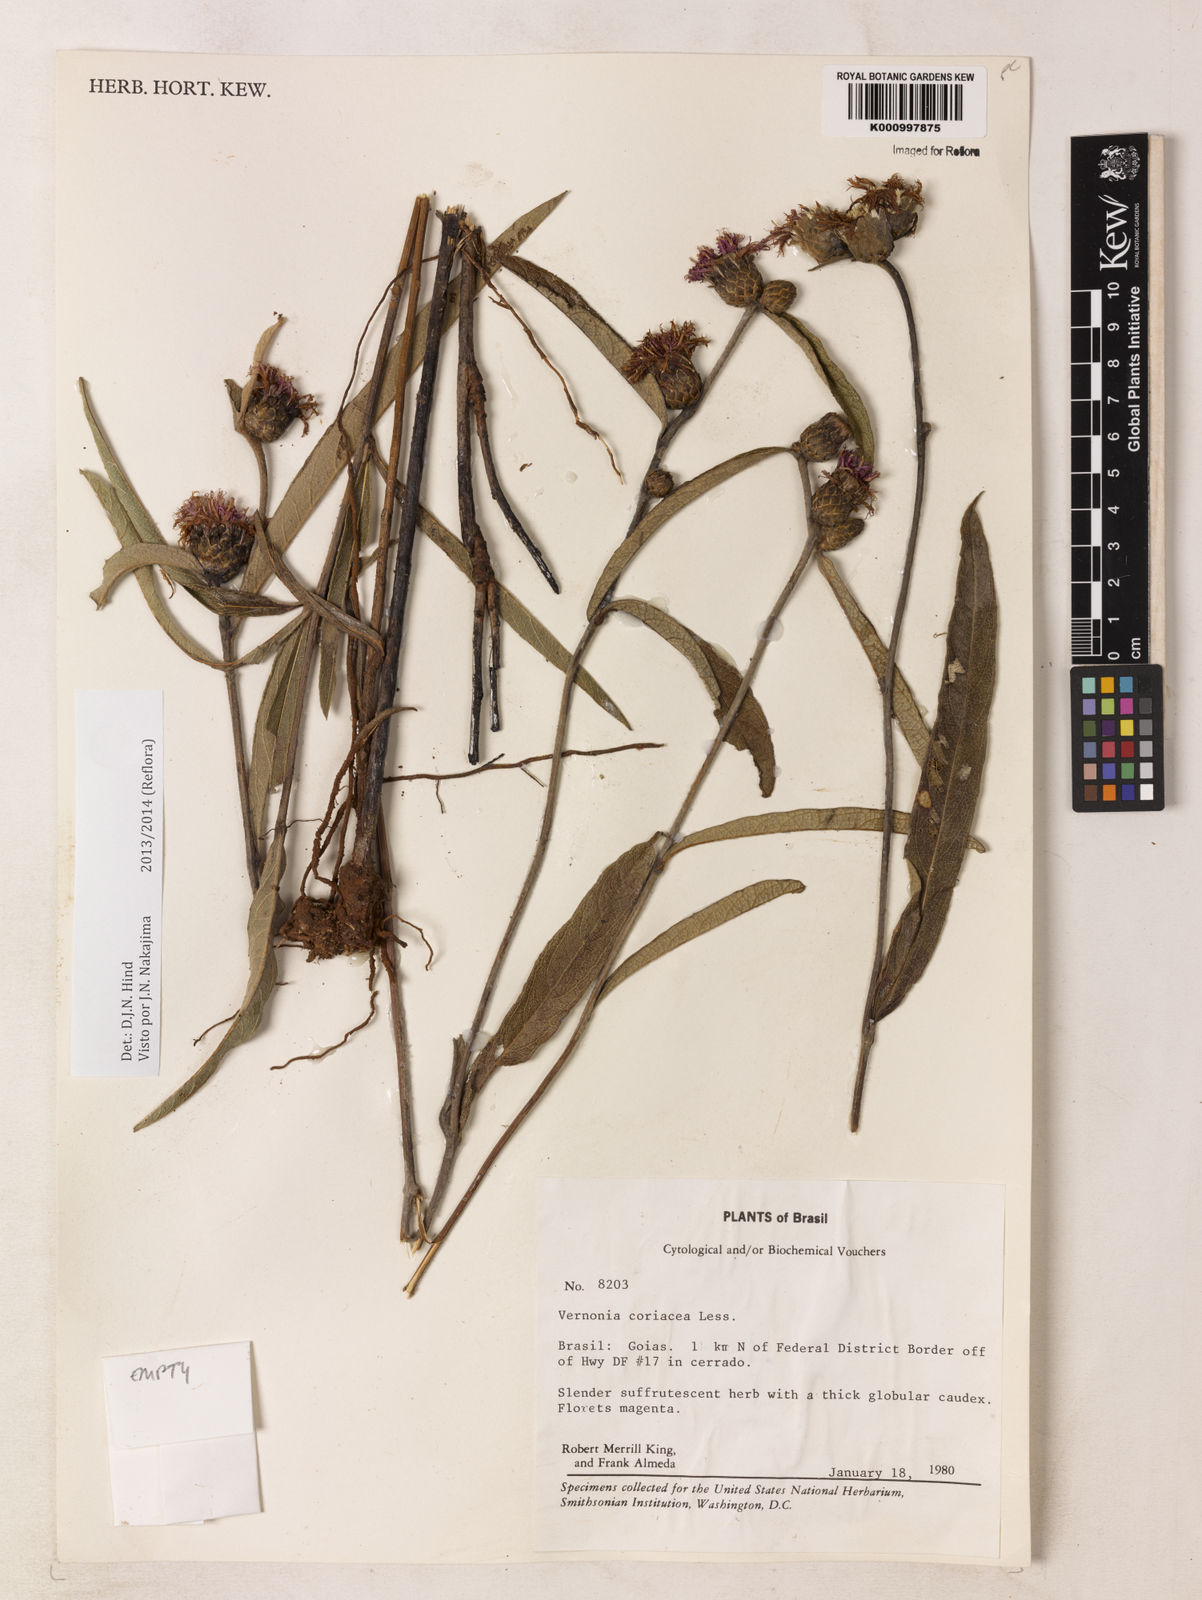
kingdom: Plantae
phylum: Tracheophyta
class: Magnoliopsida
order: Asterales
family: Asteraceae
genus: Lessingianthus
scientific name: Lessingianthus coriaceus
